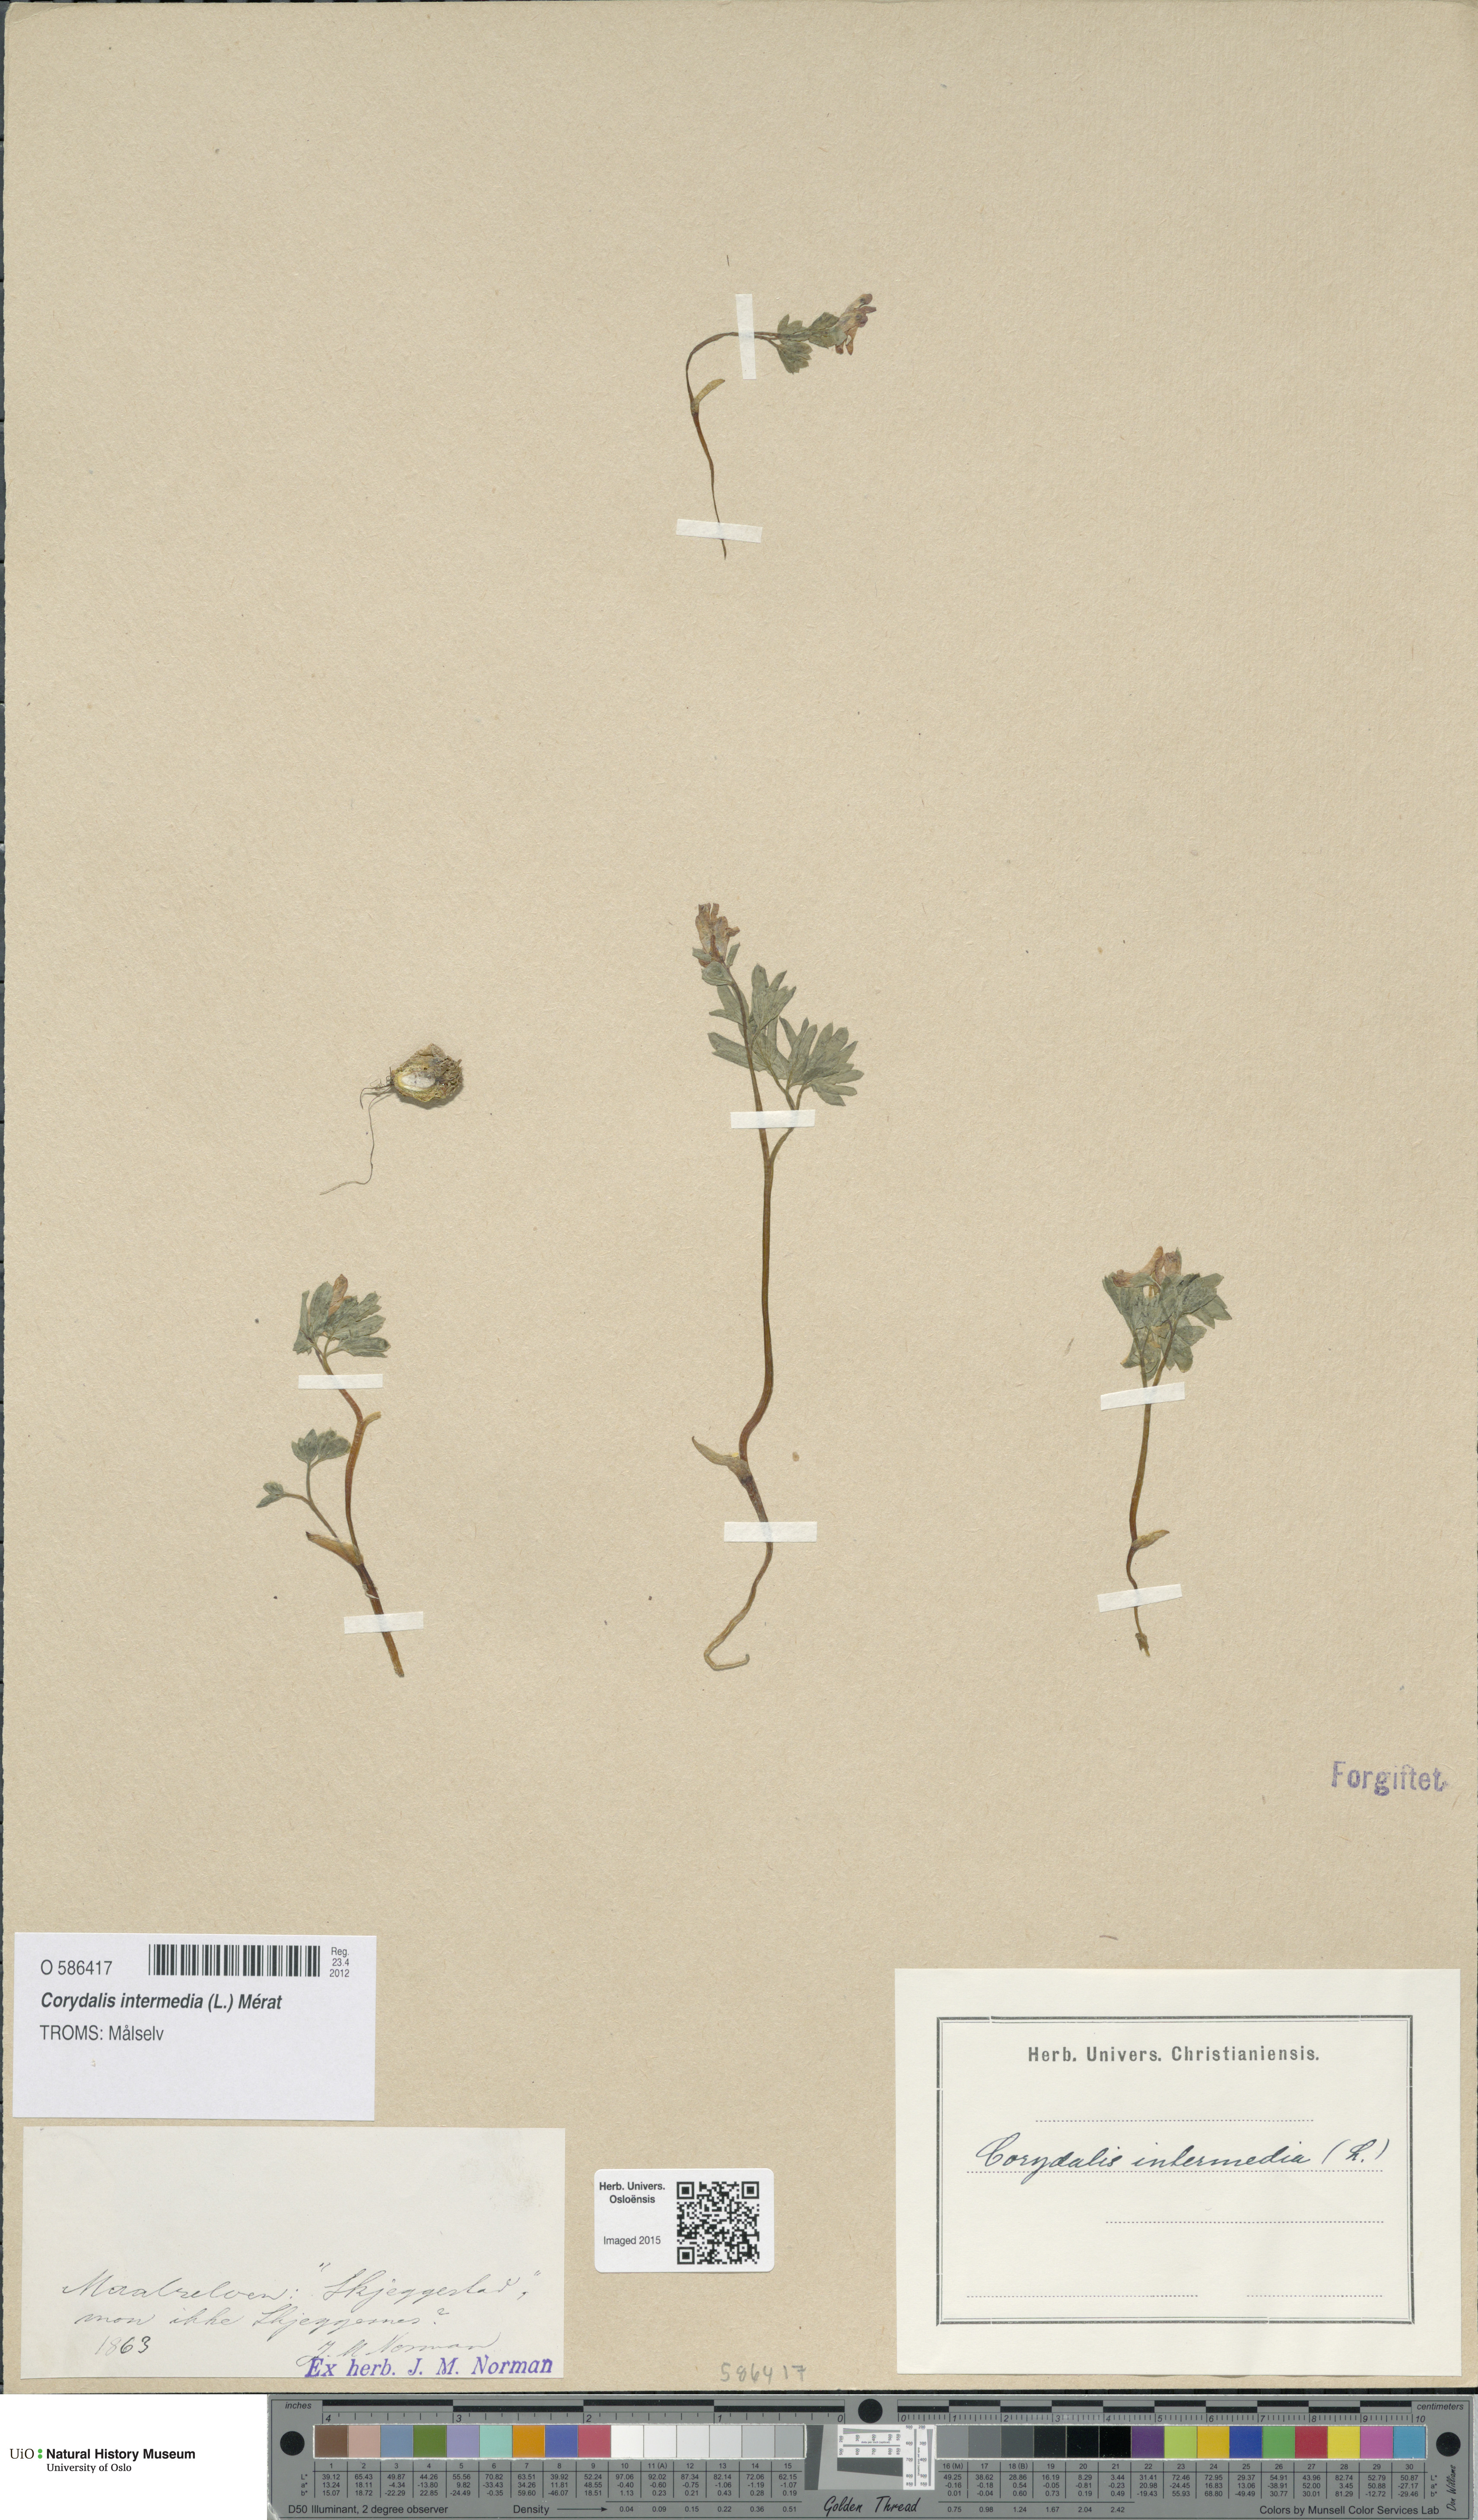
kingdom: Plantae
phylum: Tracheophyta
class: Magnoliopsida
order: Ranunculales
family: Papaveraceae
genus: Corydalis
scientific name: Corydalis intermedia
